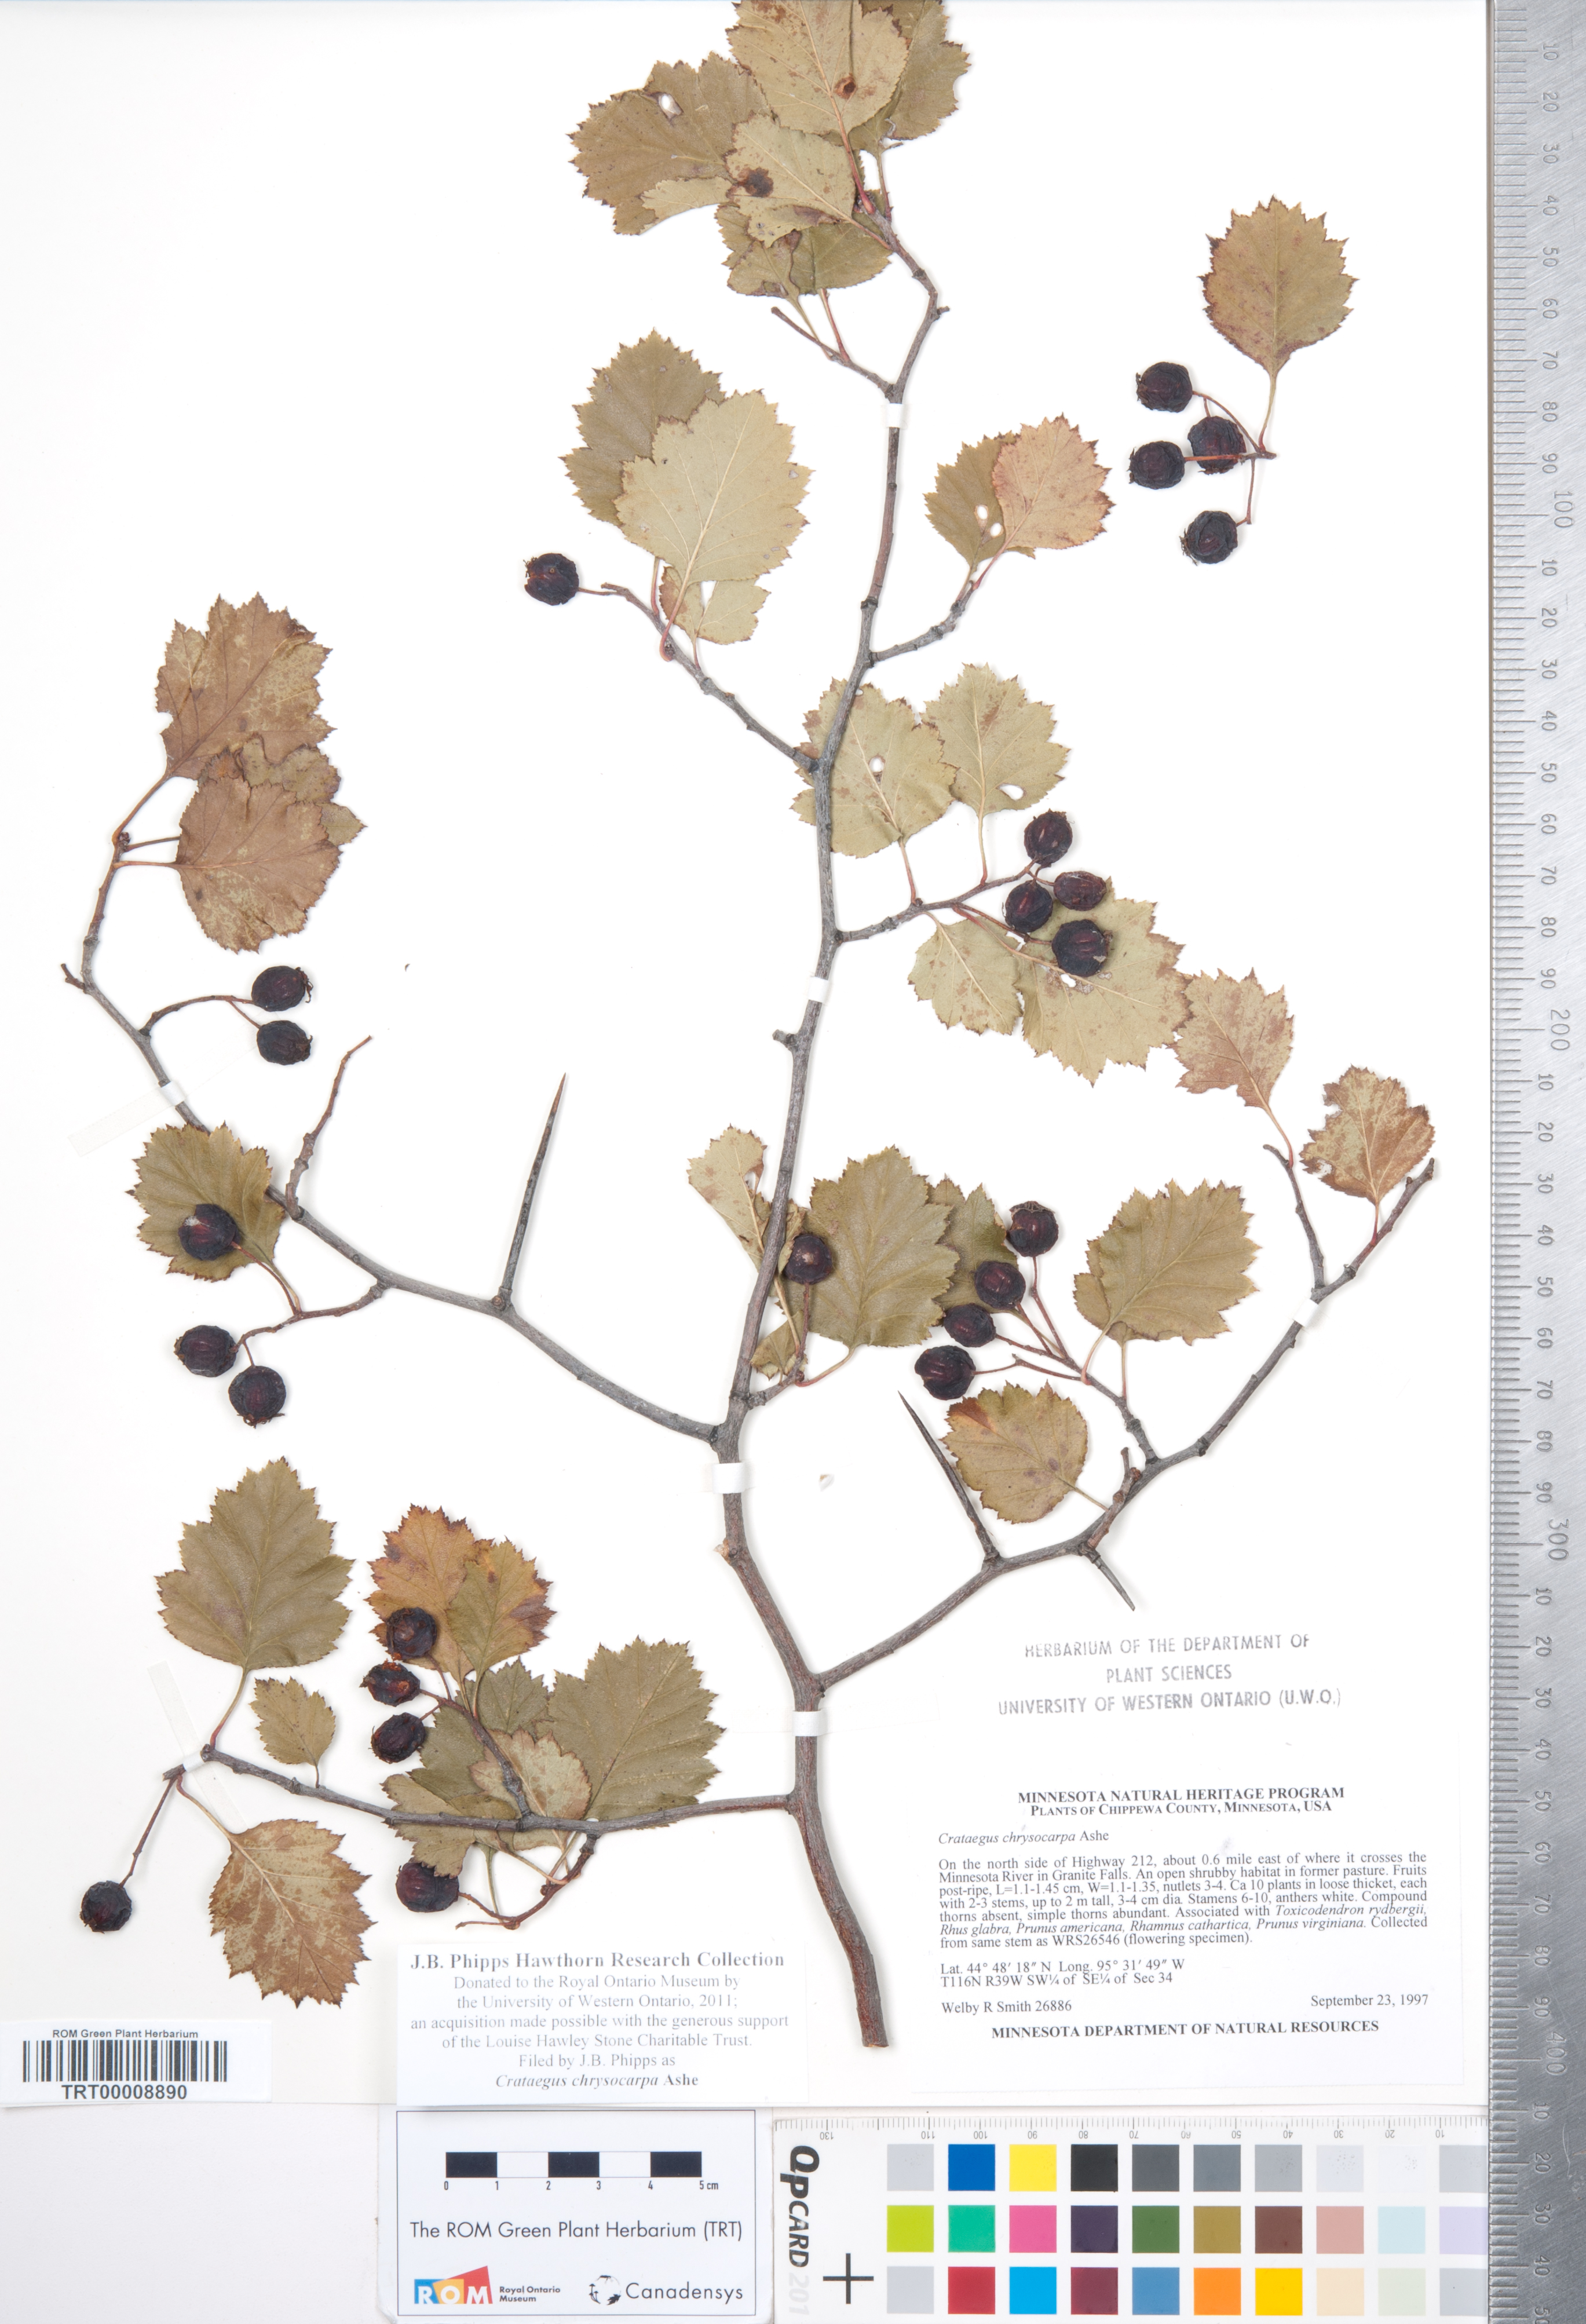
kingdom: Plantae
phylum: Tracheophyta
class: Magnoliopsida
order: Rosales
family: Rosaceae
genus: Crataegus
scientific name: Crataegus chrysocarpa
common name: Fire-berry hawthorn
